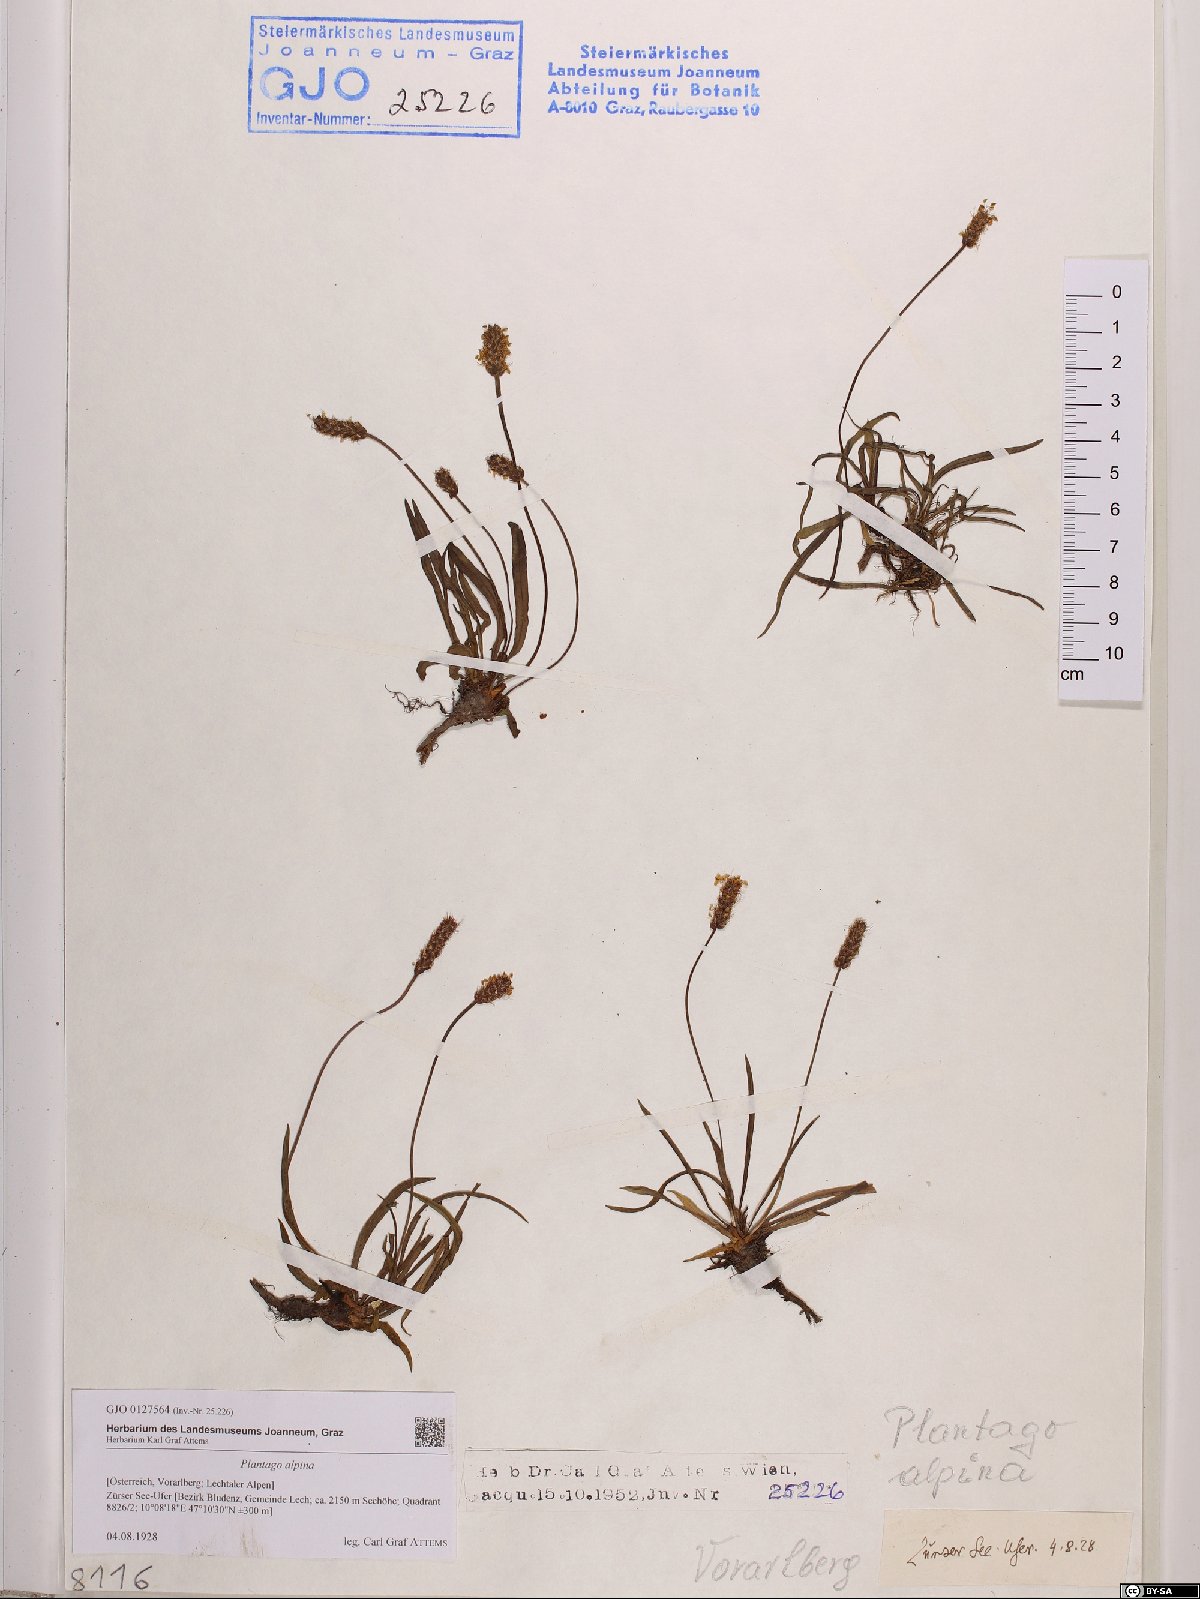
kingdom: Plantae
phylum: Tracheophyta
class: Magnoliopsida
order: Lamiales
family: Plantaginaceae
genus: Plantago
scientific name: Plantago alpina
